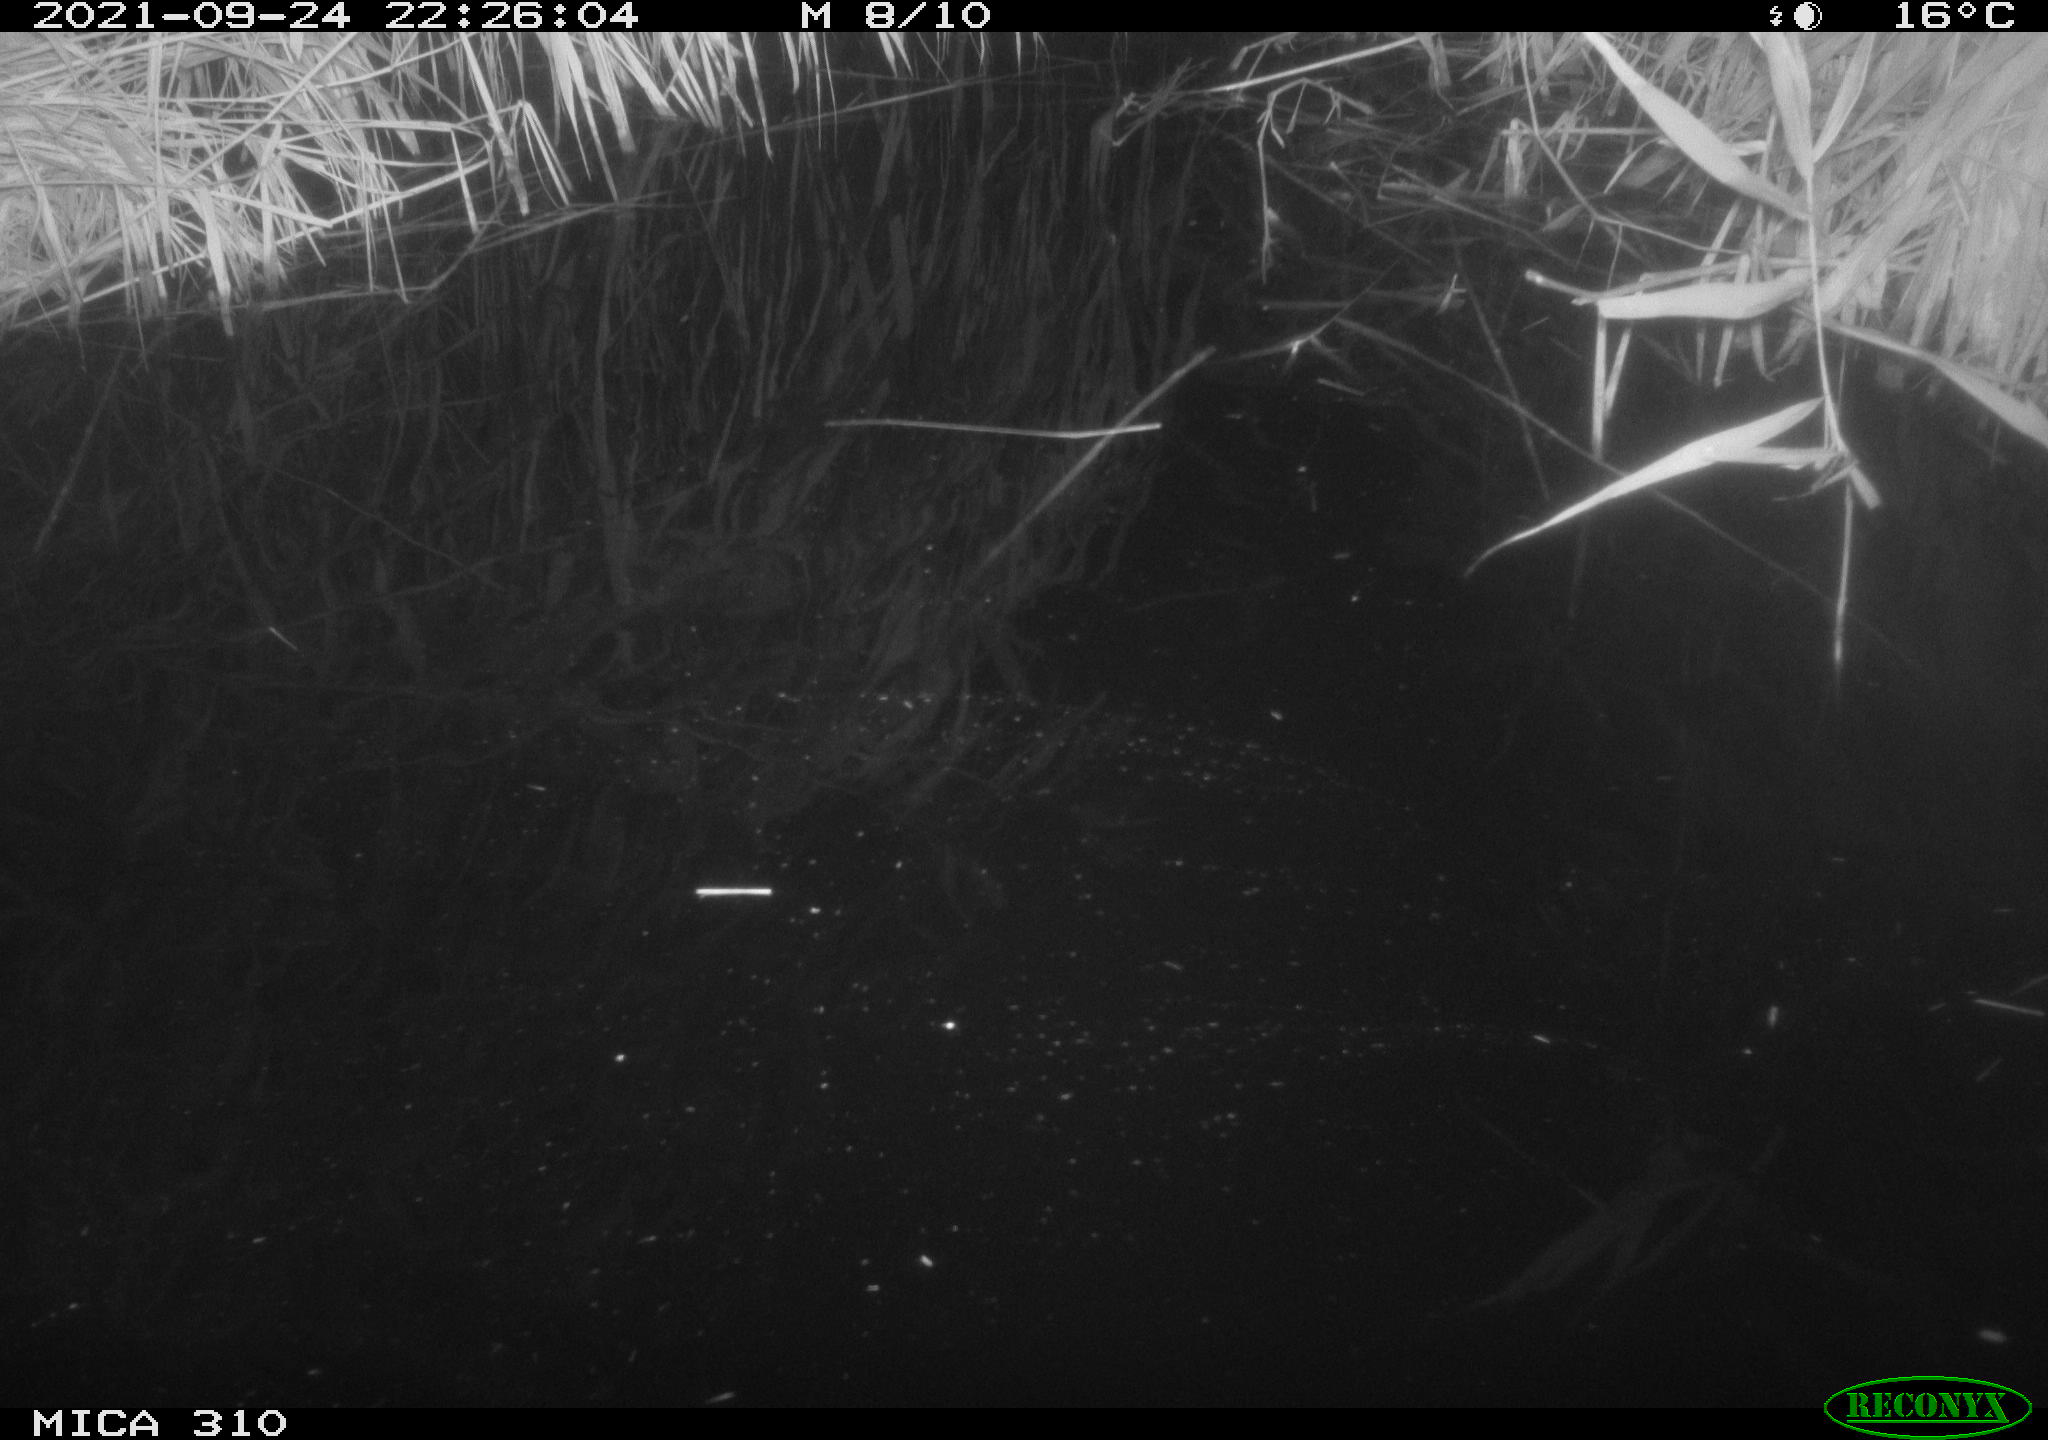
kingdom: Animalia
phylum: Chordata
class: Mammalia
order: Rodentia
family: Muridae
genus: Rattus
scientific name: Rattus norvegicus
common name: Brown rat
